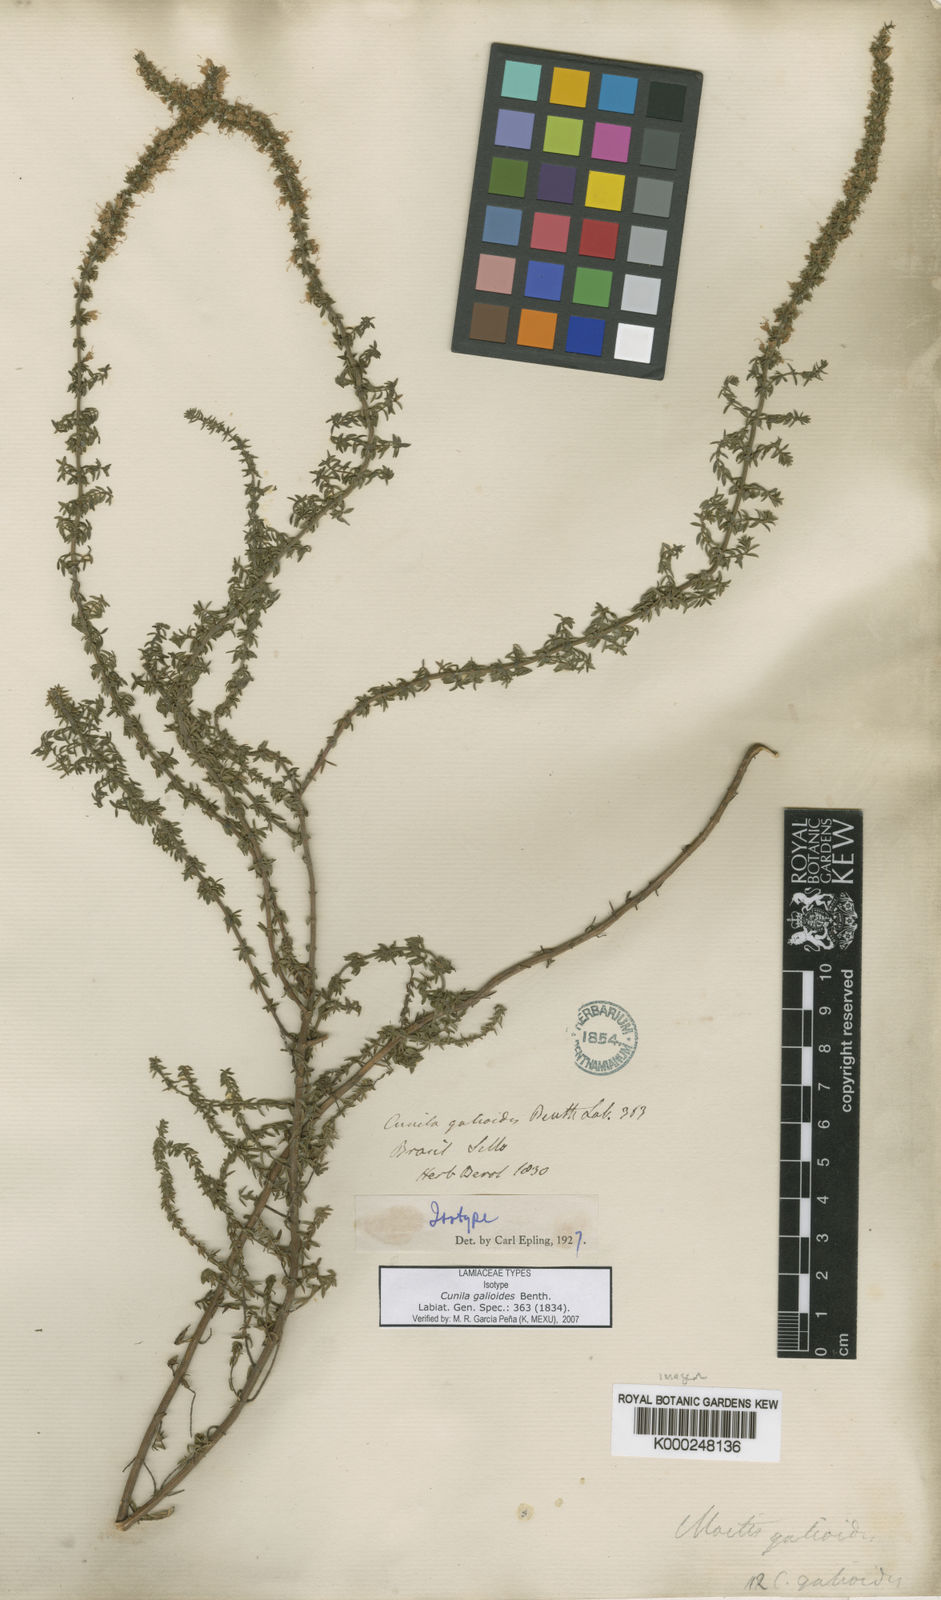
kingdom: Plantae
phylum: Tracheophyta
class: Magnoliopsida
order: Lamiales
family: Lamiaceae
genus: Cunila
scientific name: Cunila galioides
